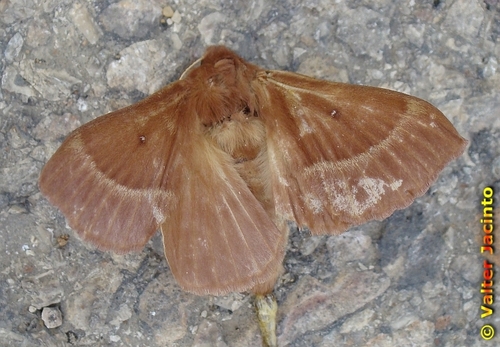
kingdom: Animalia
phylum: Arthropoda
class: Insecta
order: Lepidoptera
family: Lasiocampidae
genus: Lasiocampa
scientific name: Lasiocampa trifolii
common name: Grass eggar
